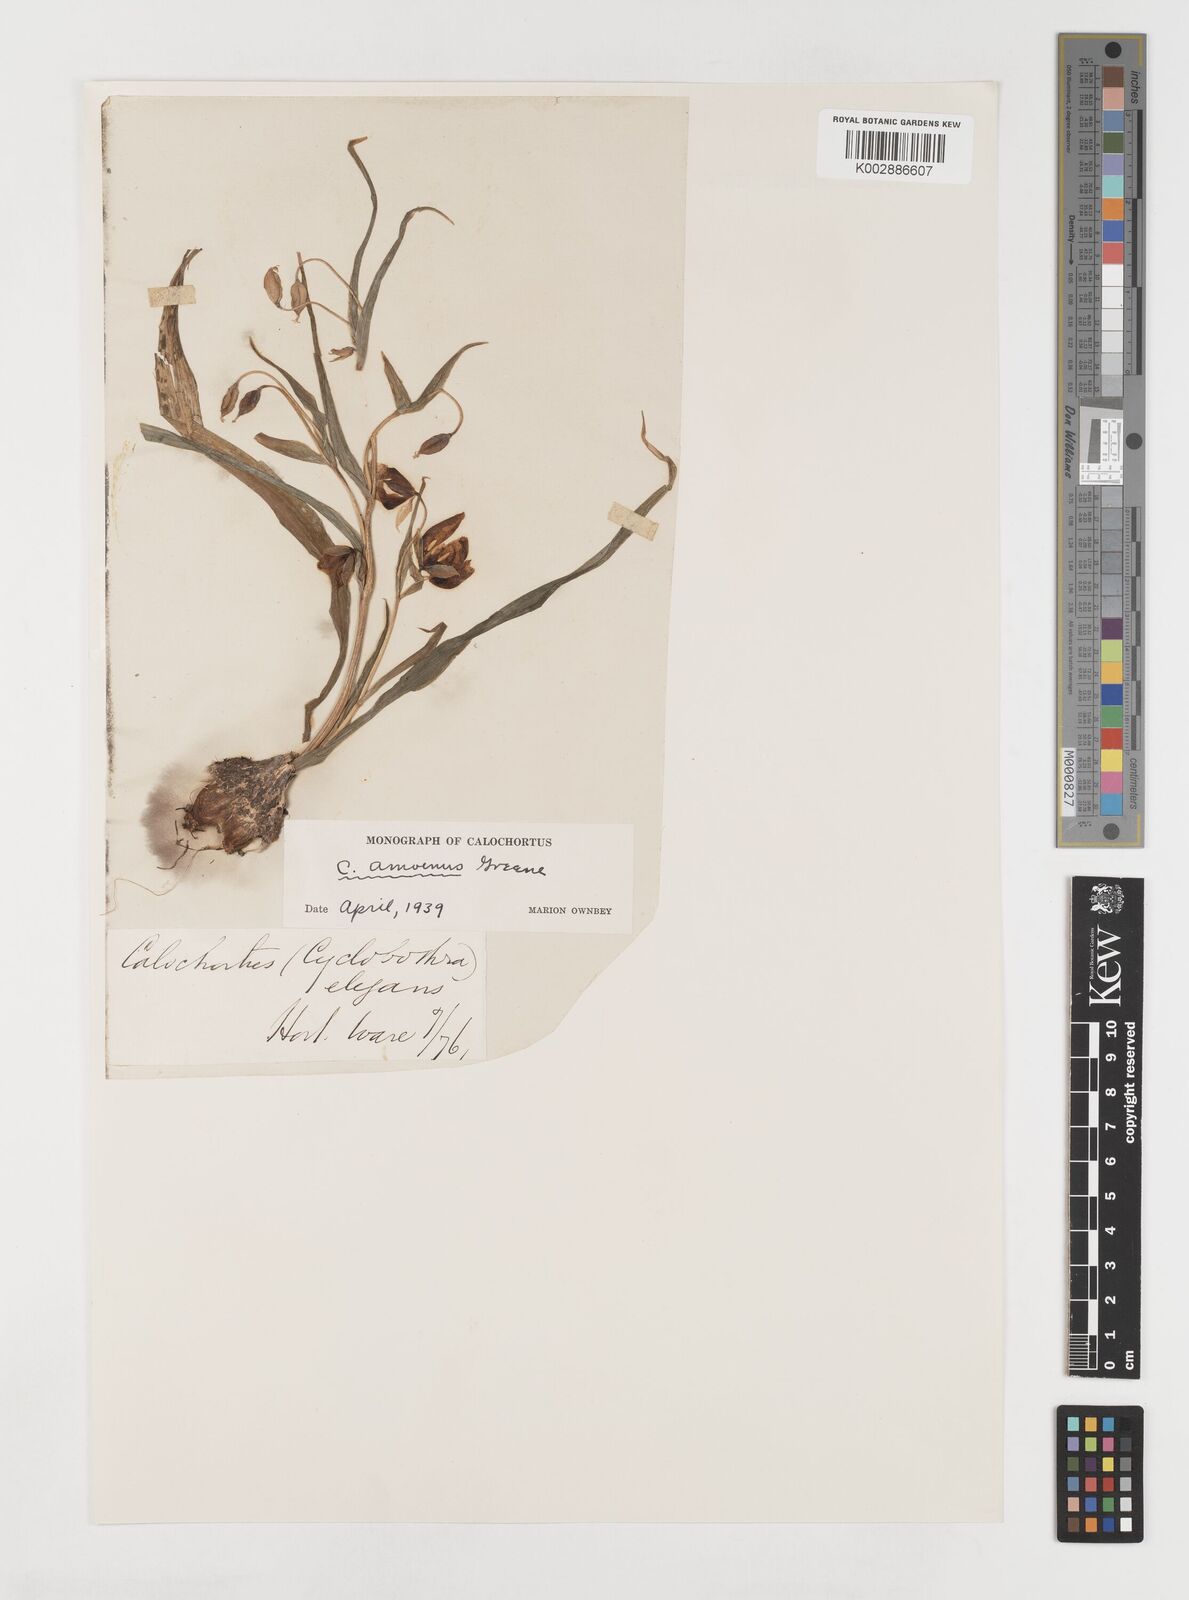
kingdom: Plantae
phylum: Tracheophyta
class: Liliopsida
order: Liliales
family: Liliaceae
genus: Calochortus
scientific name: Calochortus amoenus
